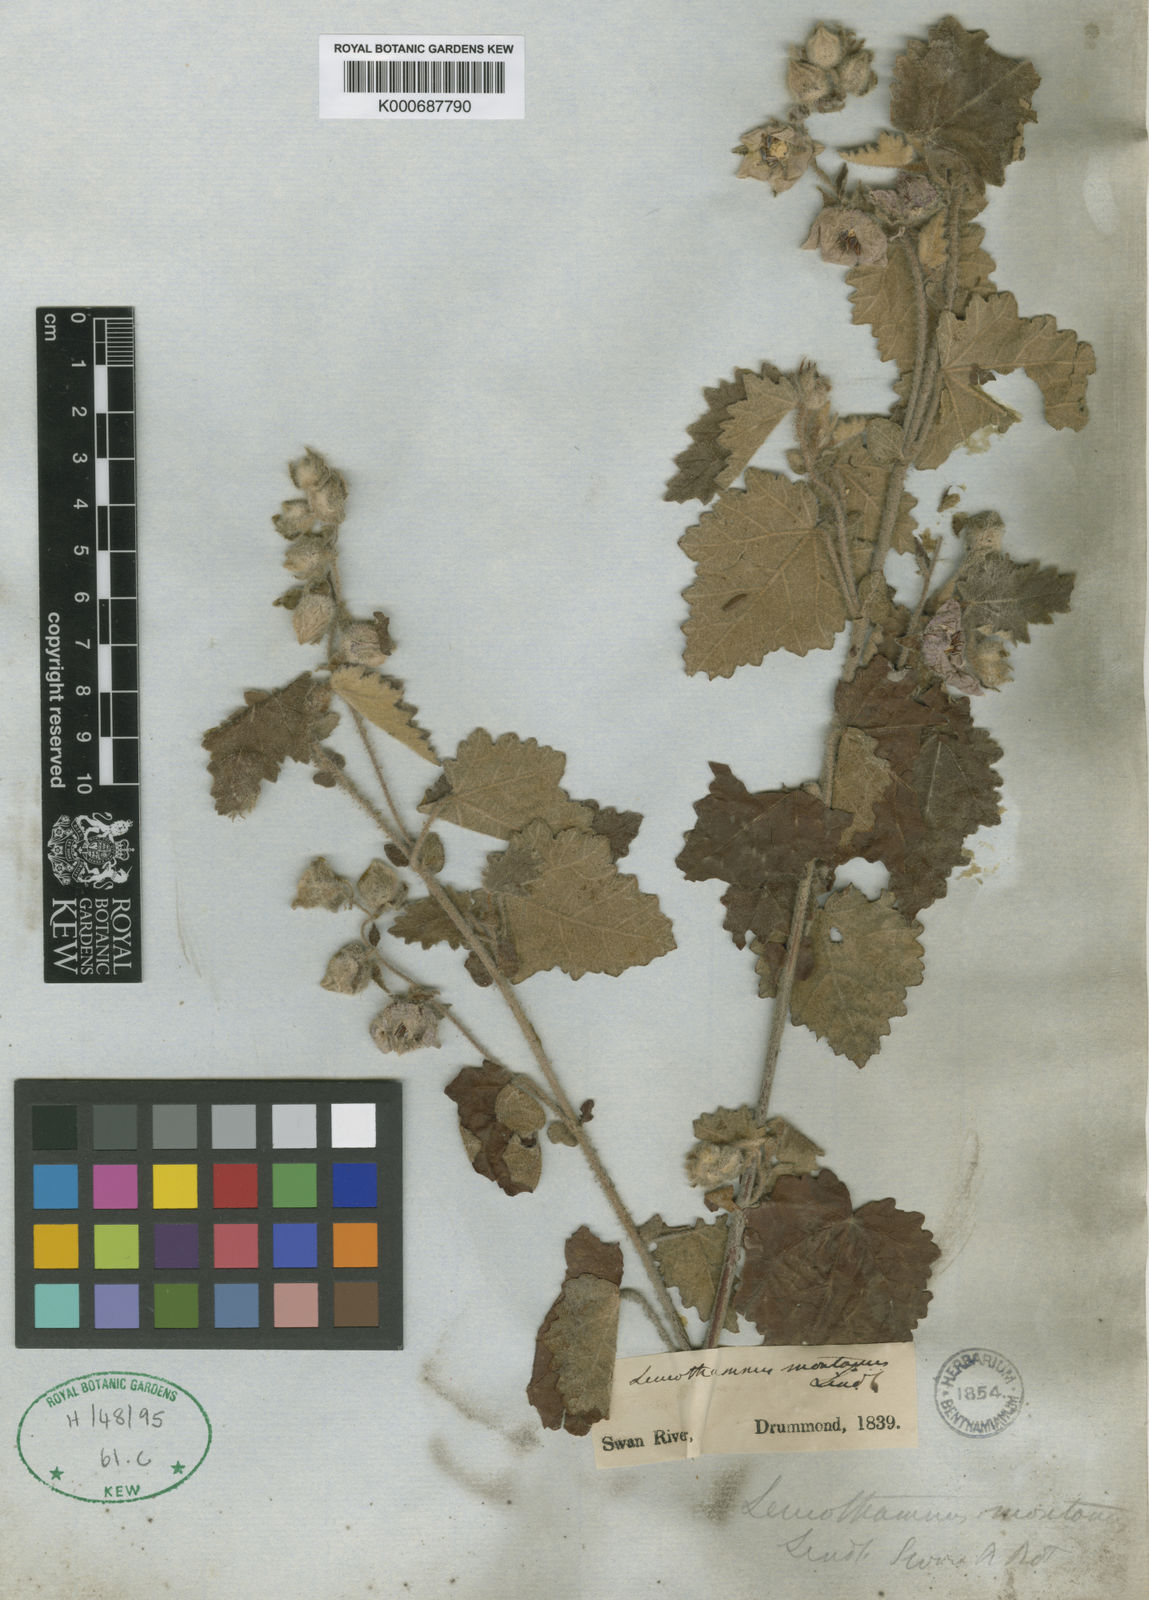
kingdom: Plantae
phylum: Tracheophyta
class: Magnoliopsida
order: Malvales
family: Malvaceae
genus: Thomasia
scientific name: Thomasia
